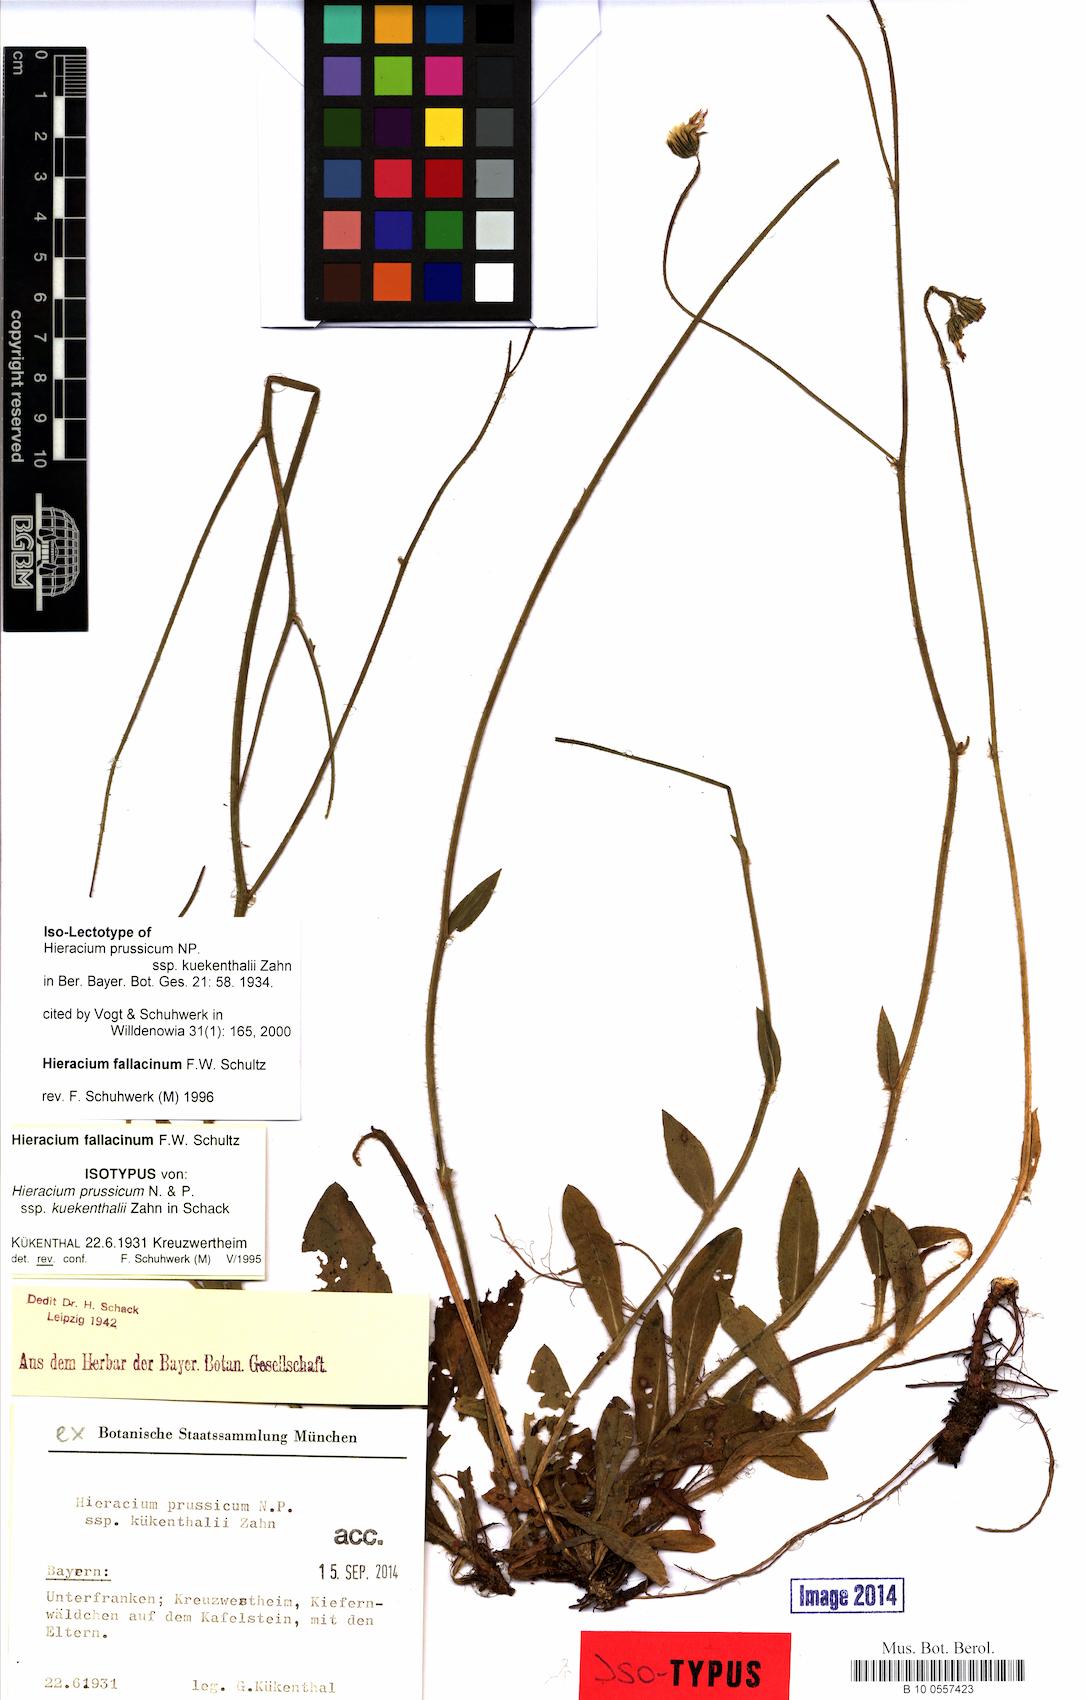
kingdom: Plantae
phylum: Tracheophyta
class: Magnoliopsida
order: Asterales
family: Asteraceae
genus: Pilosella
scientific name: Pilosella prussica
